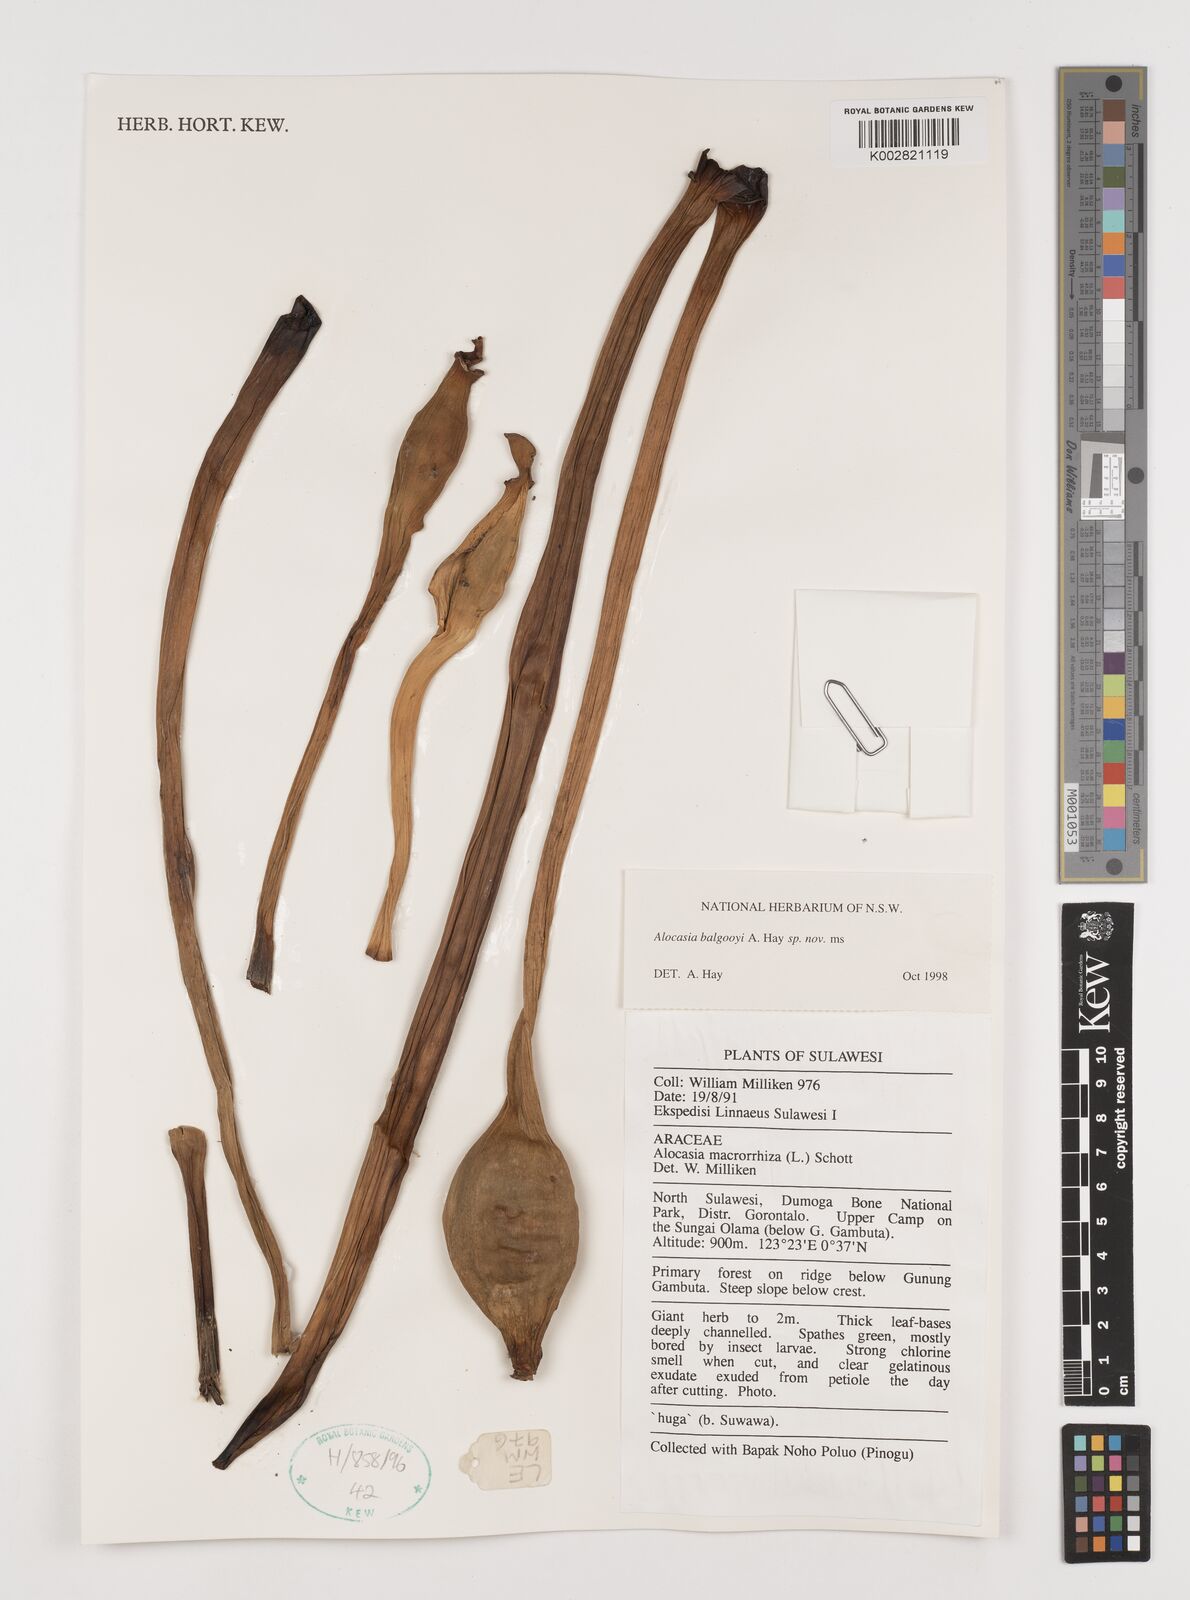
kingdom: Plantae
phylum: Tracheophyta
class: Liliopsida
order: Alismatales
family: Araceae
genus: Alocasia
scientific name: Alocasia balgooyi
